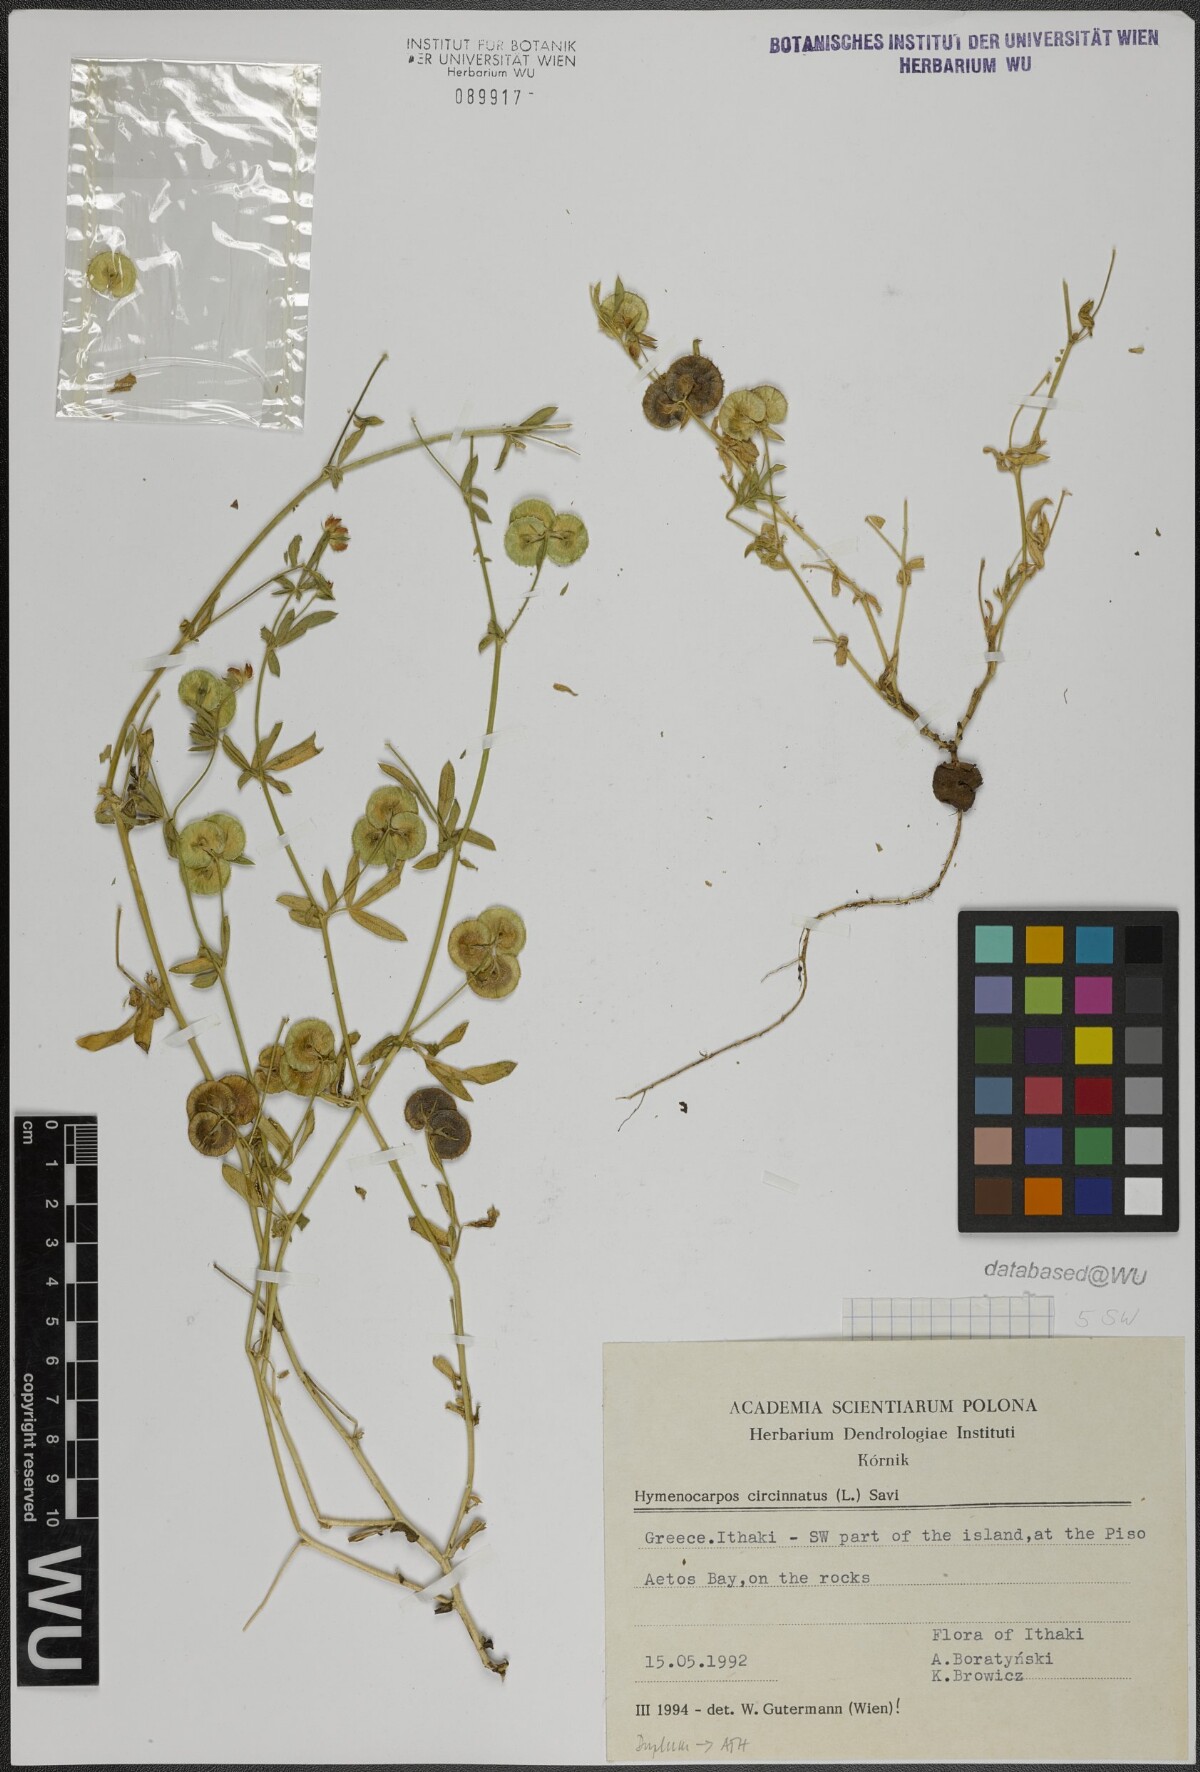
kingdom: Plantae
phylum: Tracheophyta
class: Magnoliopsida
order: Fabales
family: Fabaceae
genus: Anthyllis
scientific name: Anthyllis circinnata
